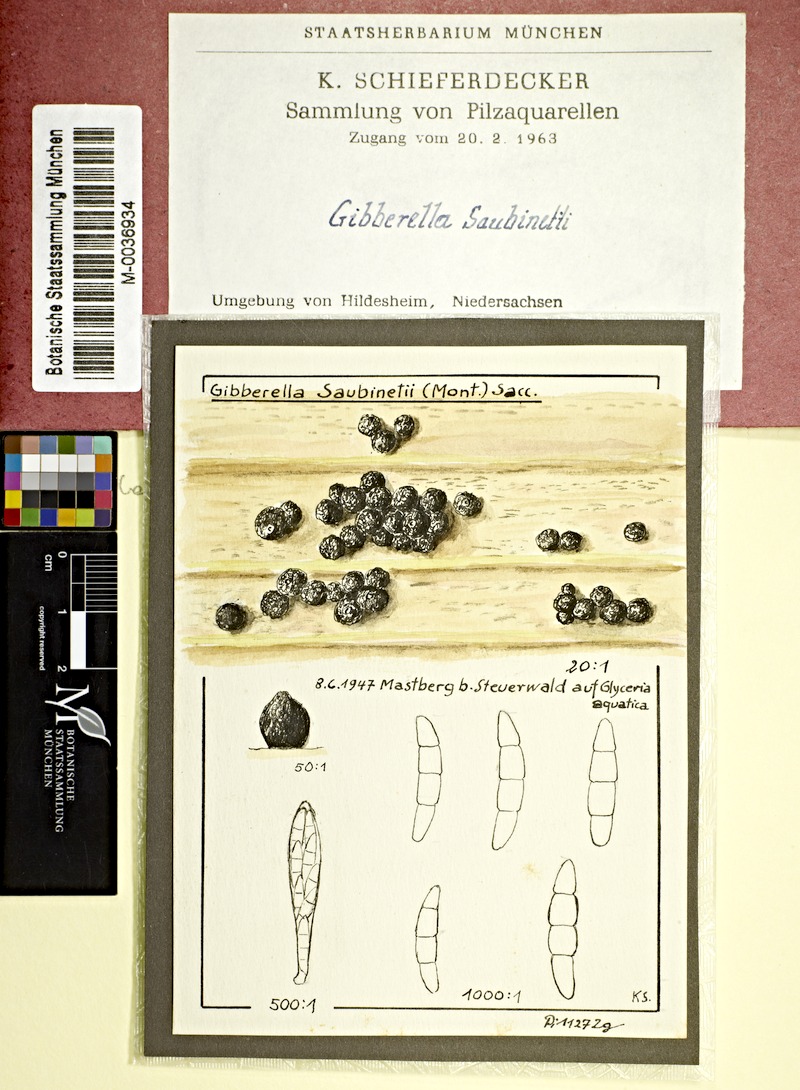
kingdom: Plantae
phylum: Tracheophyta
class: Liliopsida
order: Poales
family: Poaceae
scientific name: Poaceae
